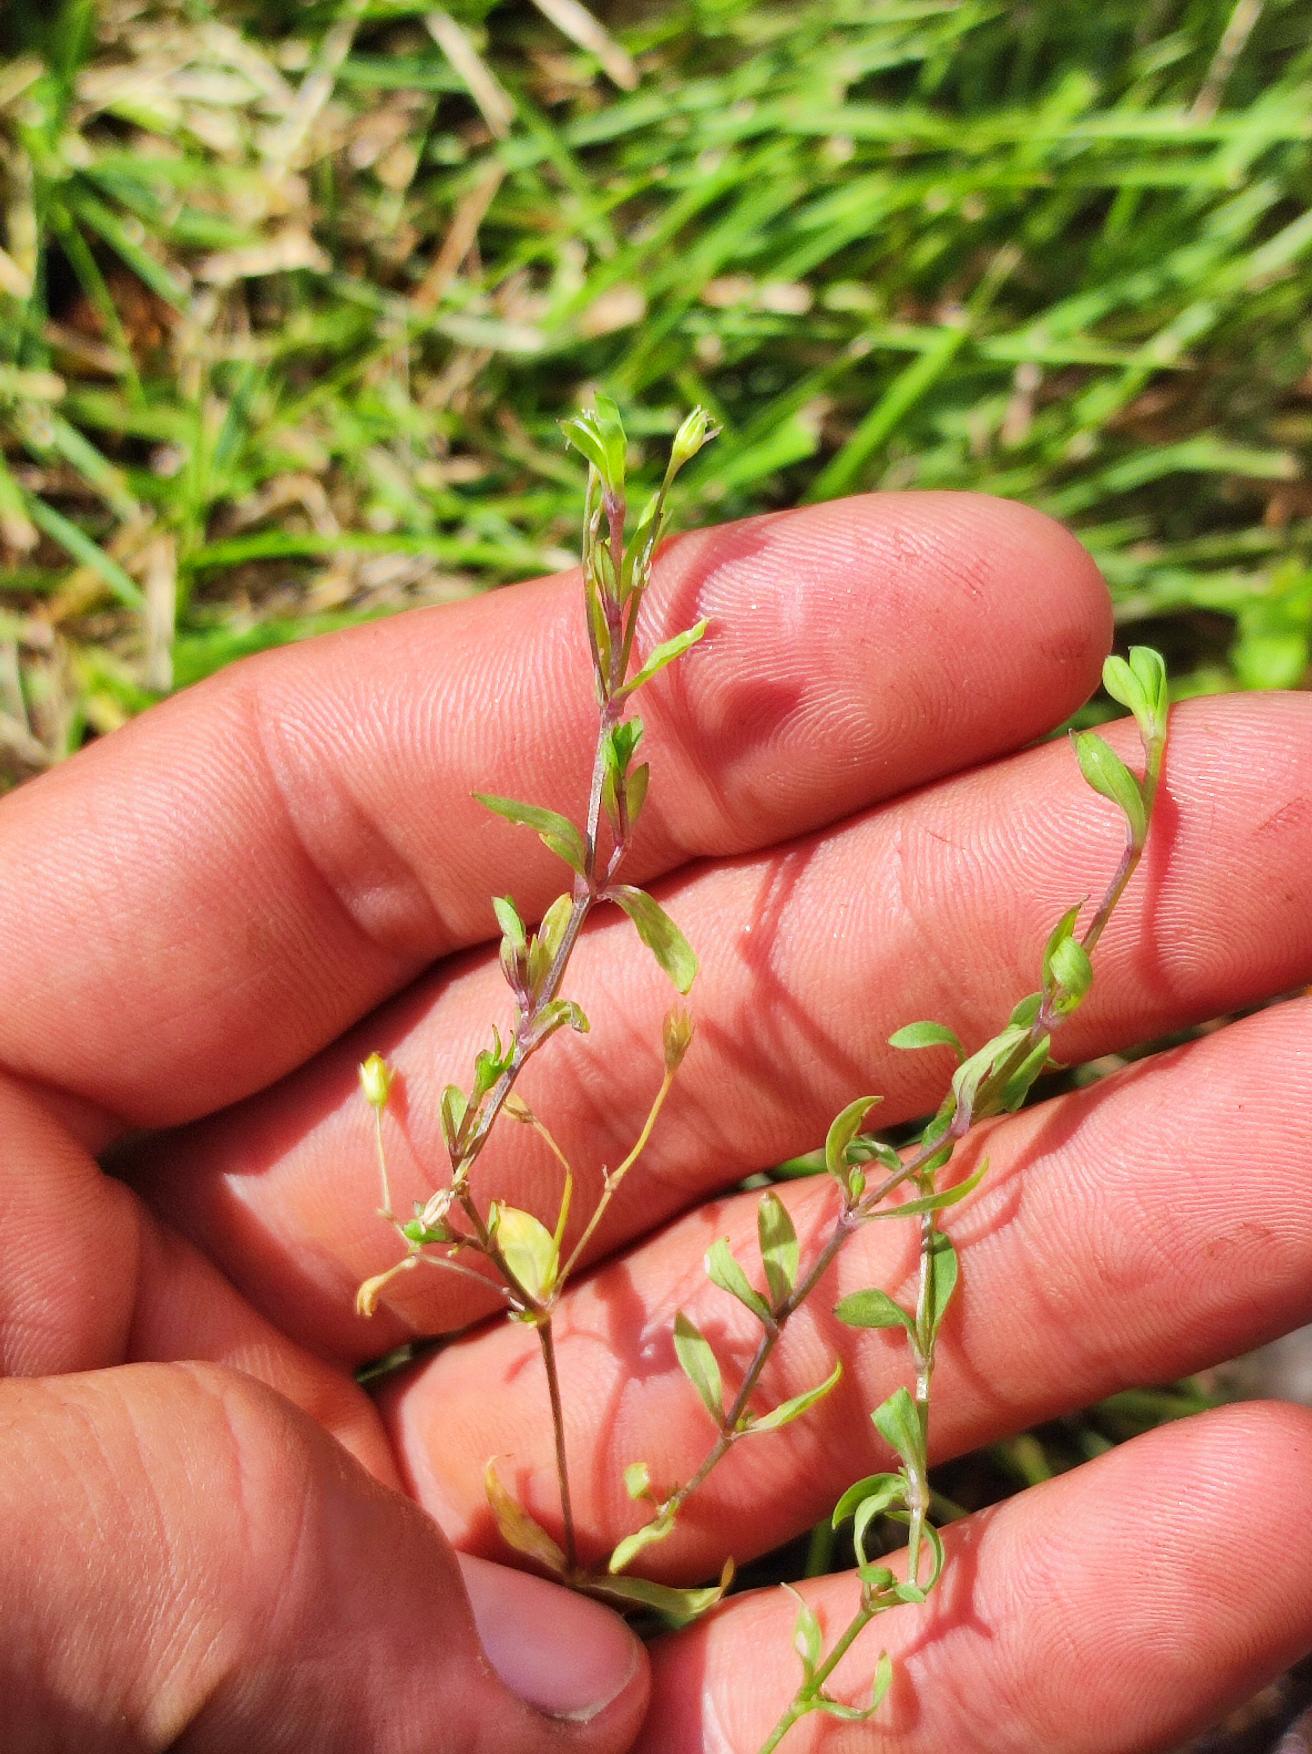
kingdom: Plantae
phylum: Tracheophyta
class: Magnoliopsida
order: Caryophyllales
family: Caryophyllaceae
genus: Stellaria
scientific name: Stellaria alsine
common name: Sump-fladstjerne
